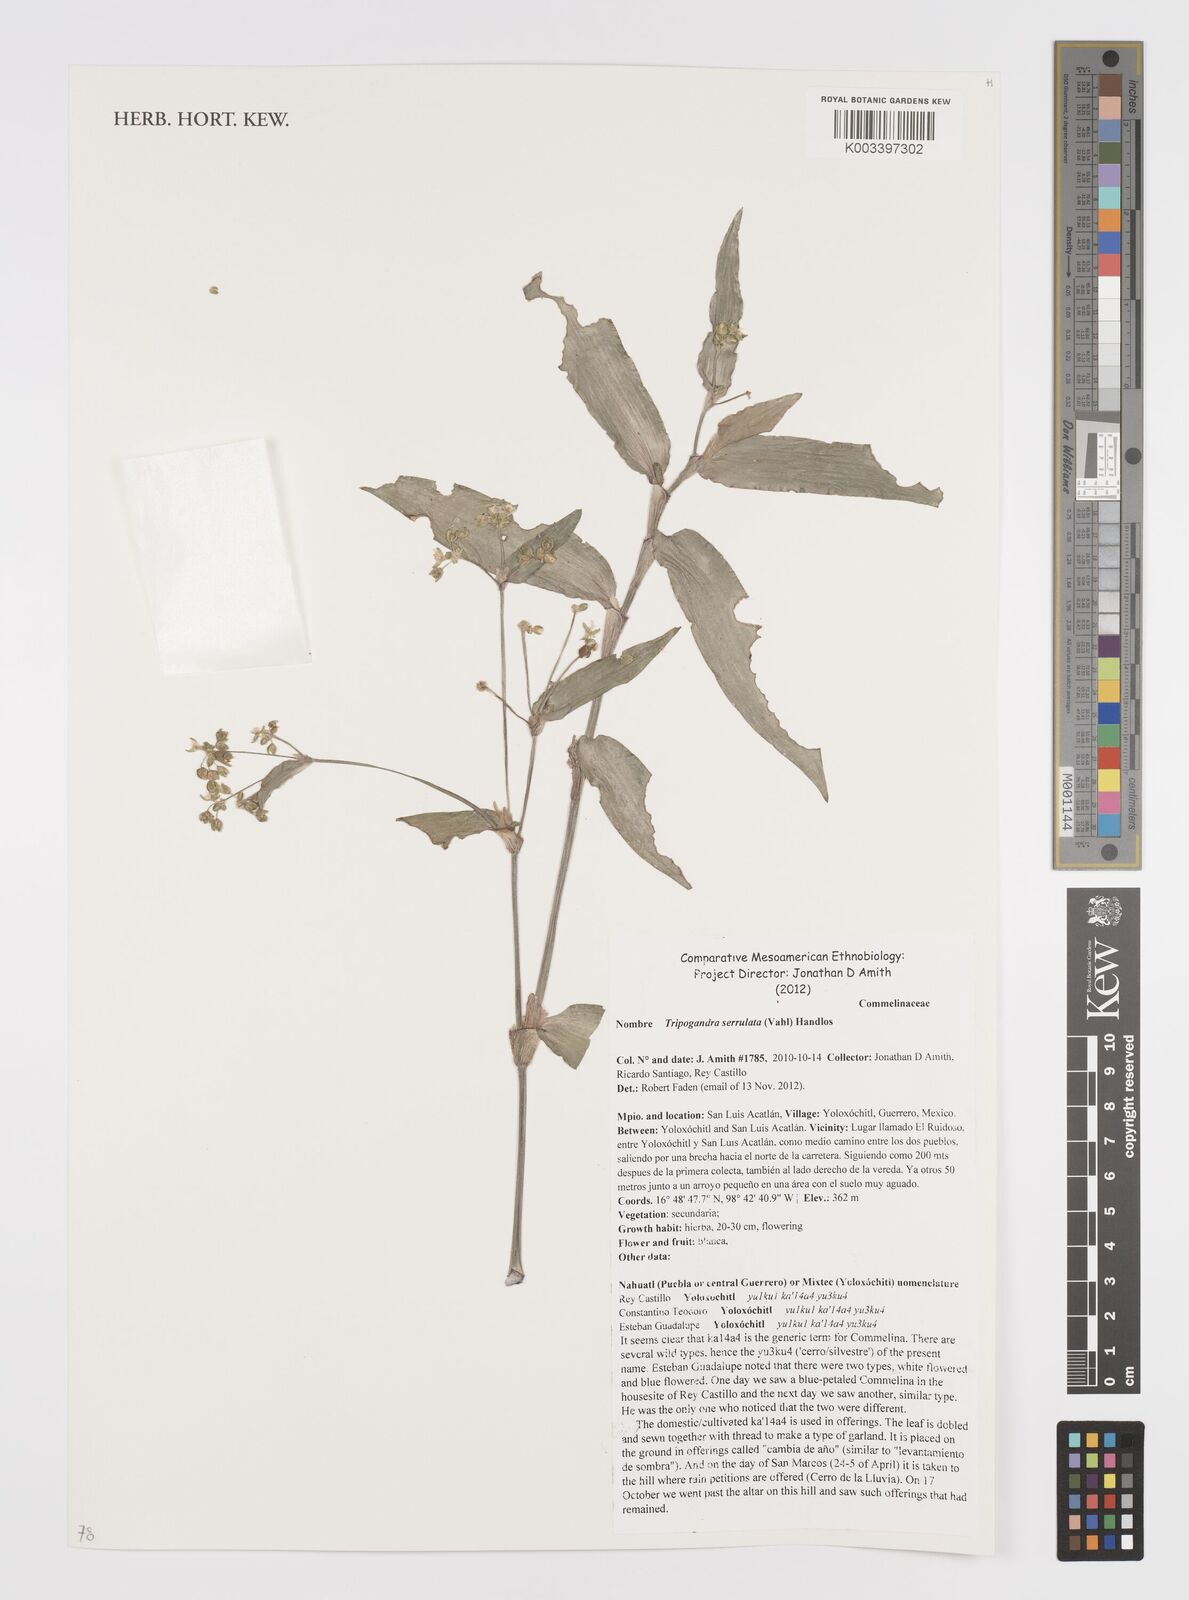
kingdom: Plantae
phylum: Tracheophyta
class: Liliopsida
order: Commelinales
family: Commelinaceae
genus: Callisia
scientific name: Callisia serrulata
